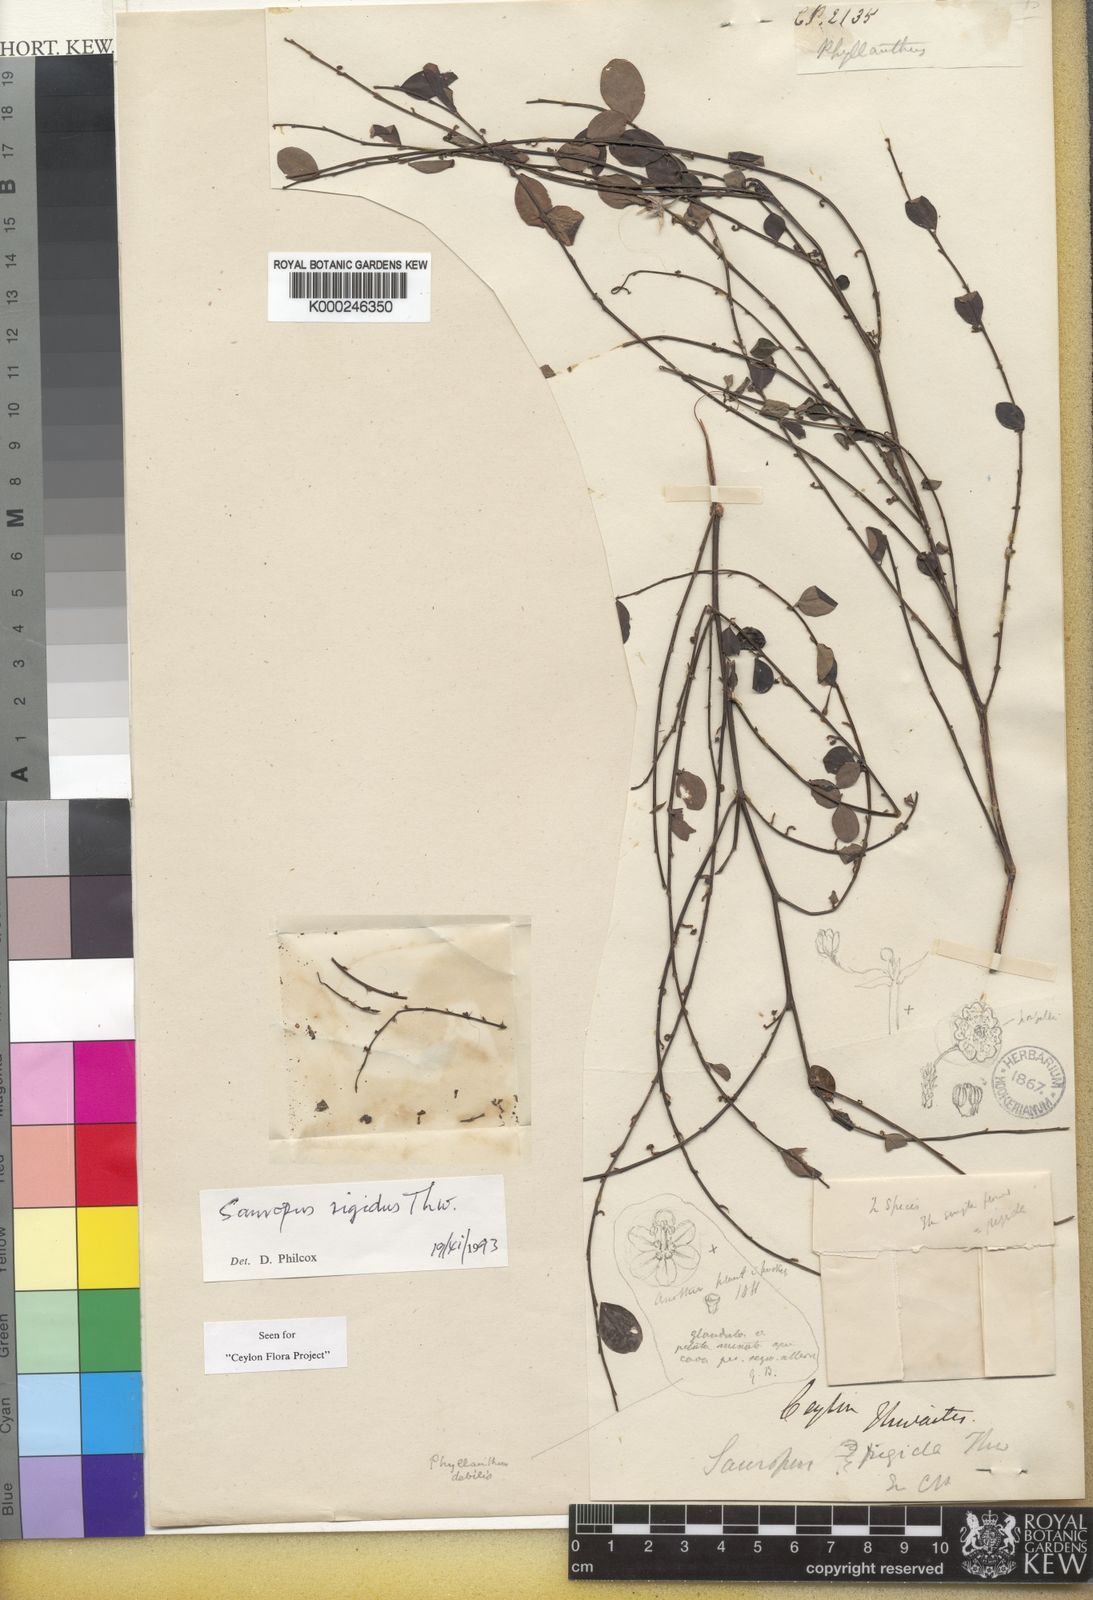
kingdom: Animalia
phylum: Chordata
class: Amphibia
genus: Sauropus
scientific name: Sauropus
